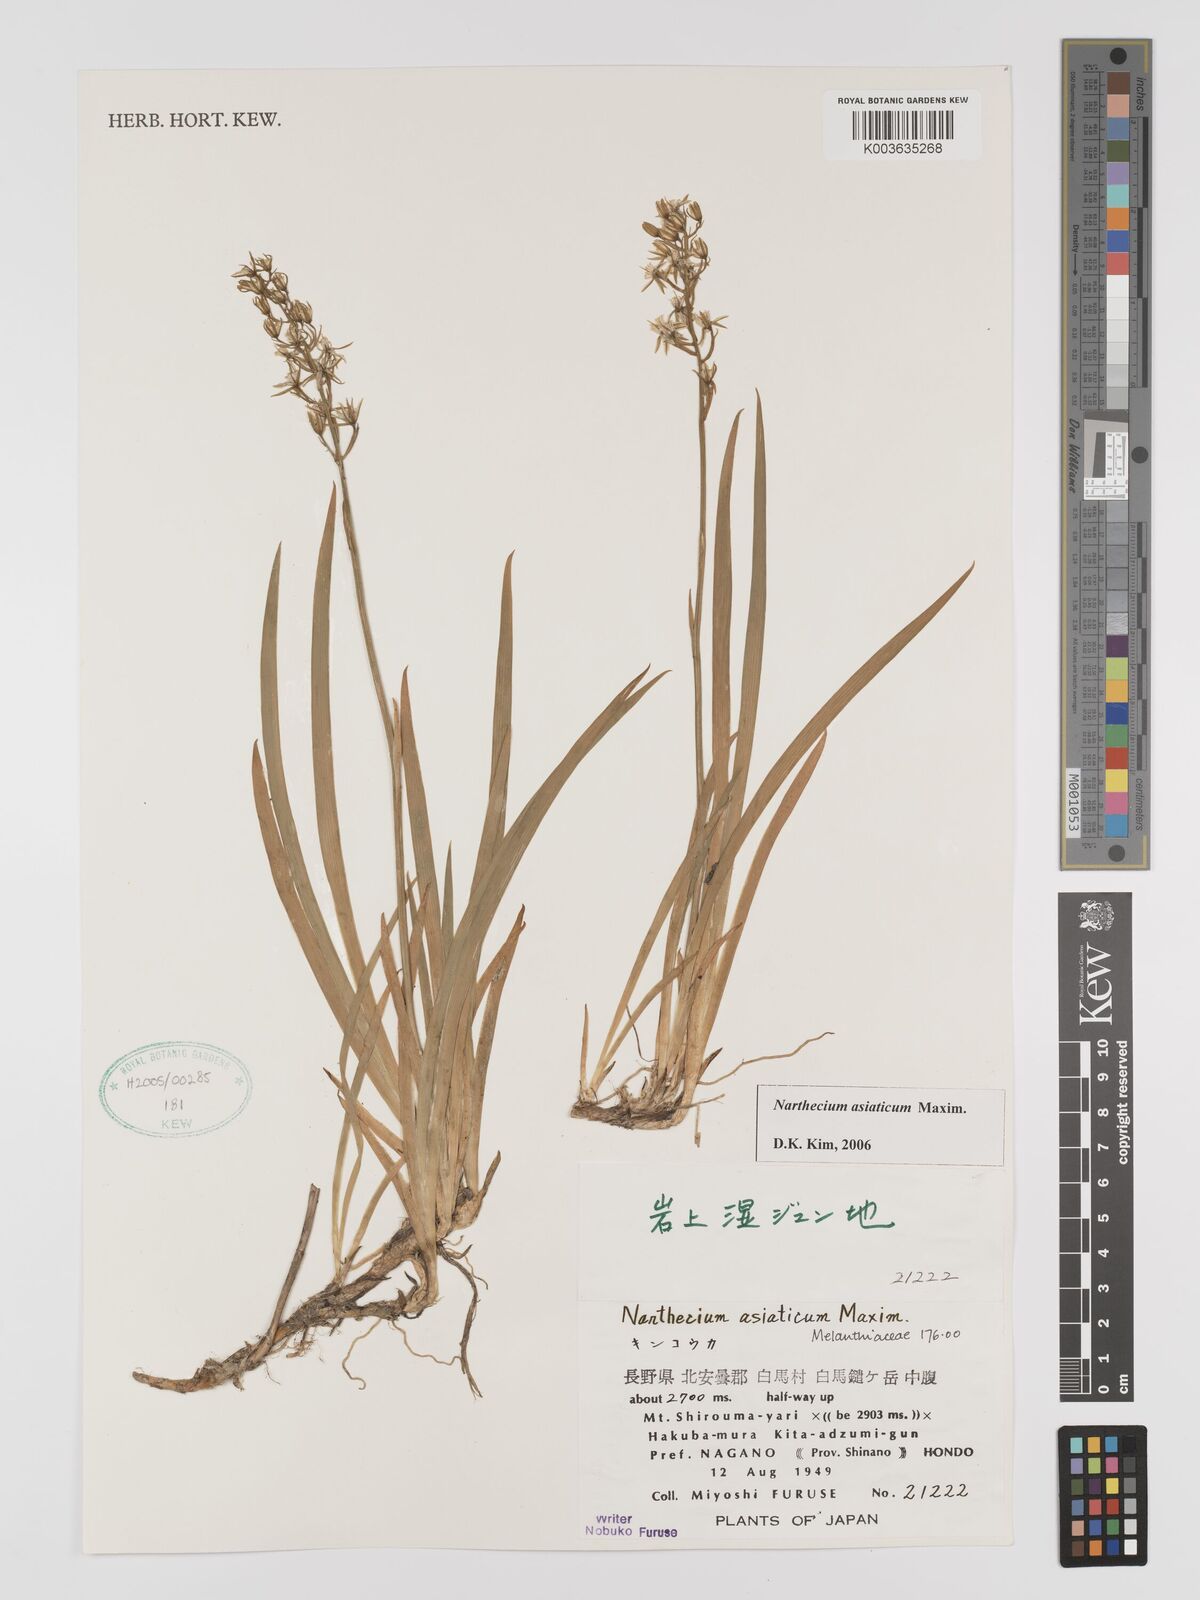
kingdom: Plantae
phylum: Tracheophyta
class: Liliopsida
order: Dioscoreales
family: Nartheciaceae
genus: Narthecium
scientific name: Narthecium asiaticum
